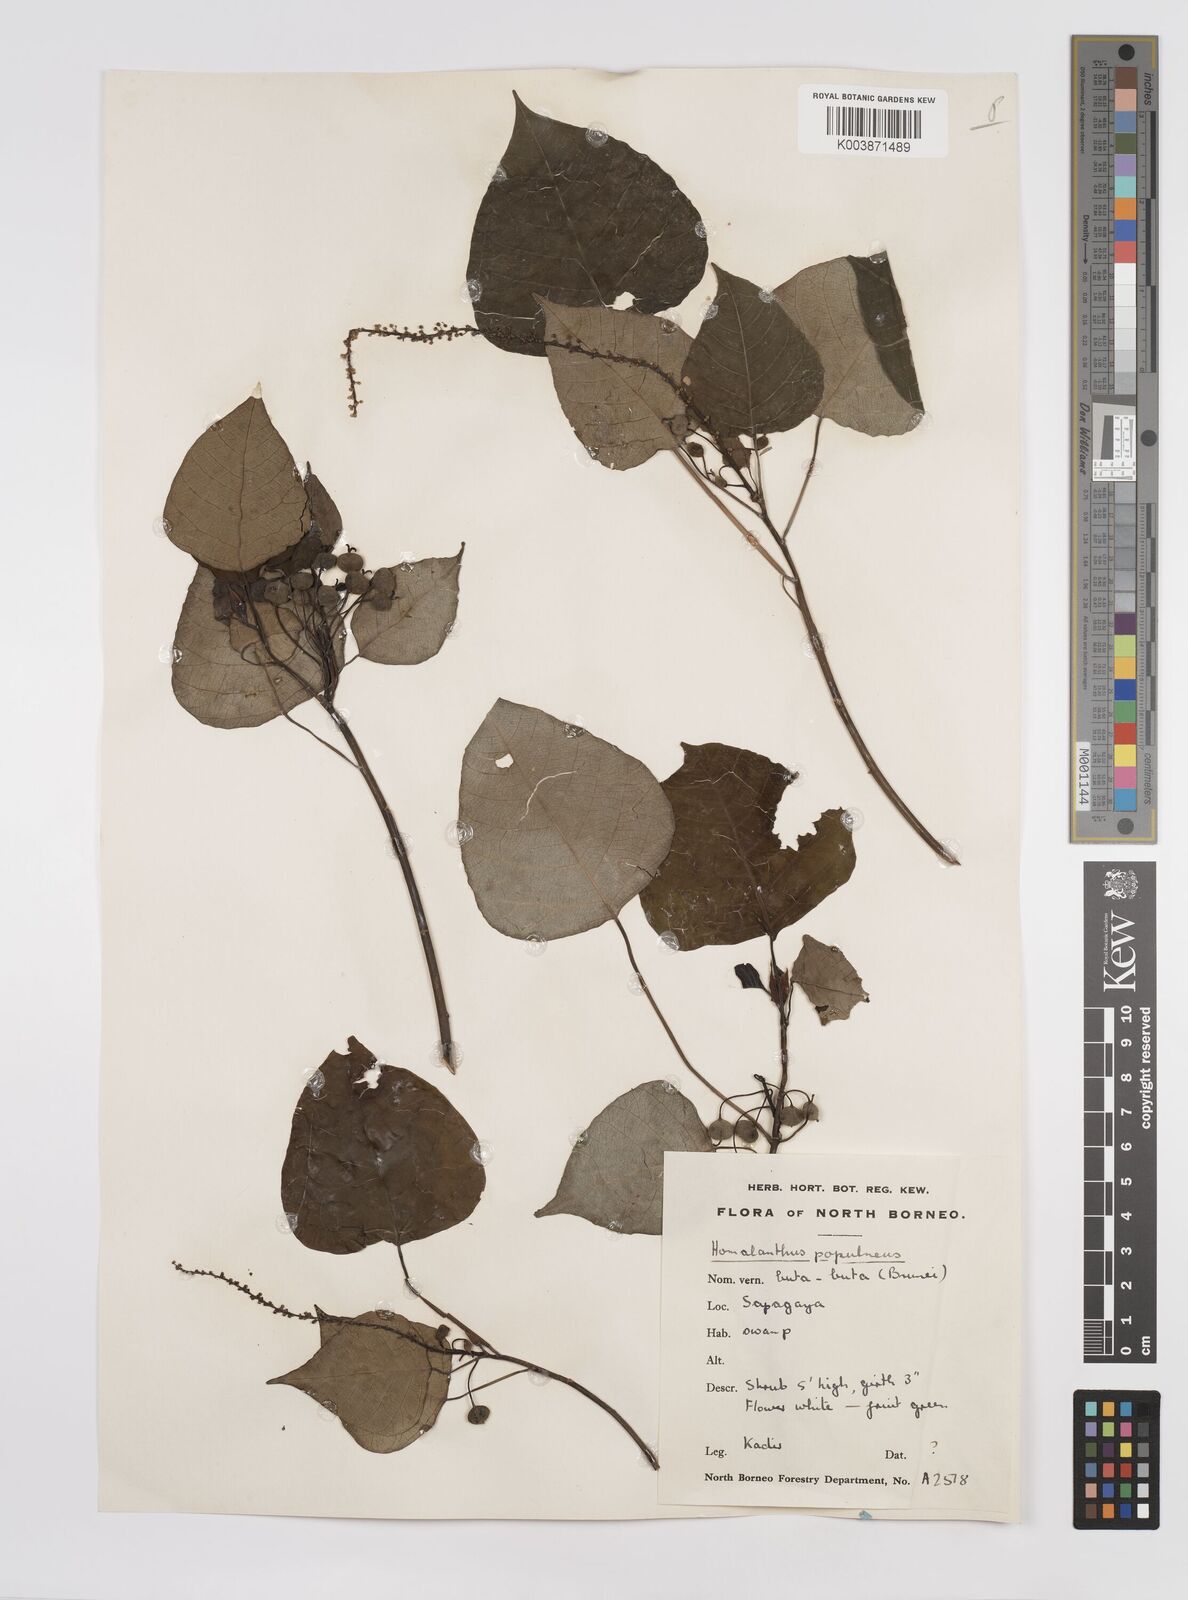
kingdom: Plantae
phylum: Tracheophyta
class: Magnoliopsida
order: Malpighiales
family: Euphorbiaceae
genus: Homalanthus
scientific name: Homalanthus populneus
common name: Spurge
